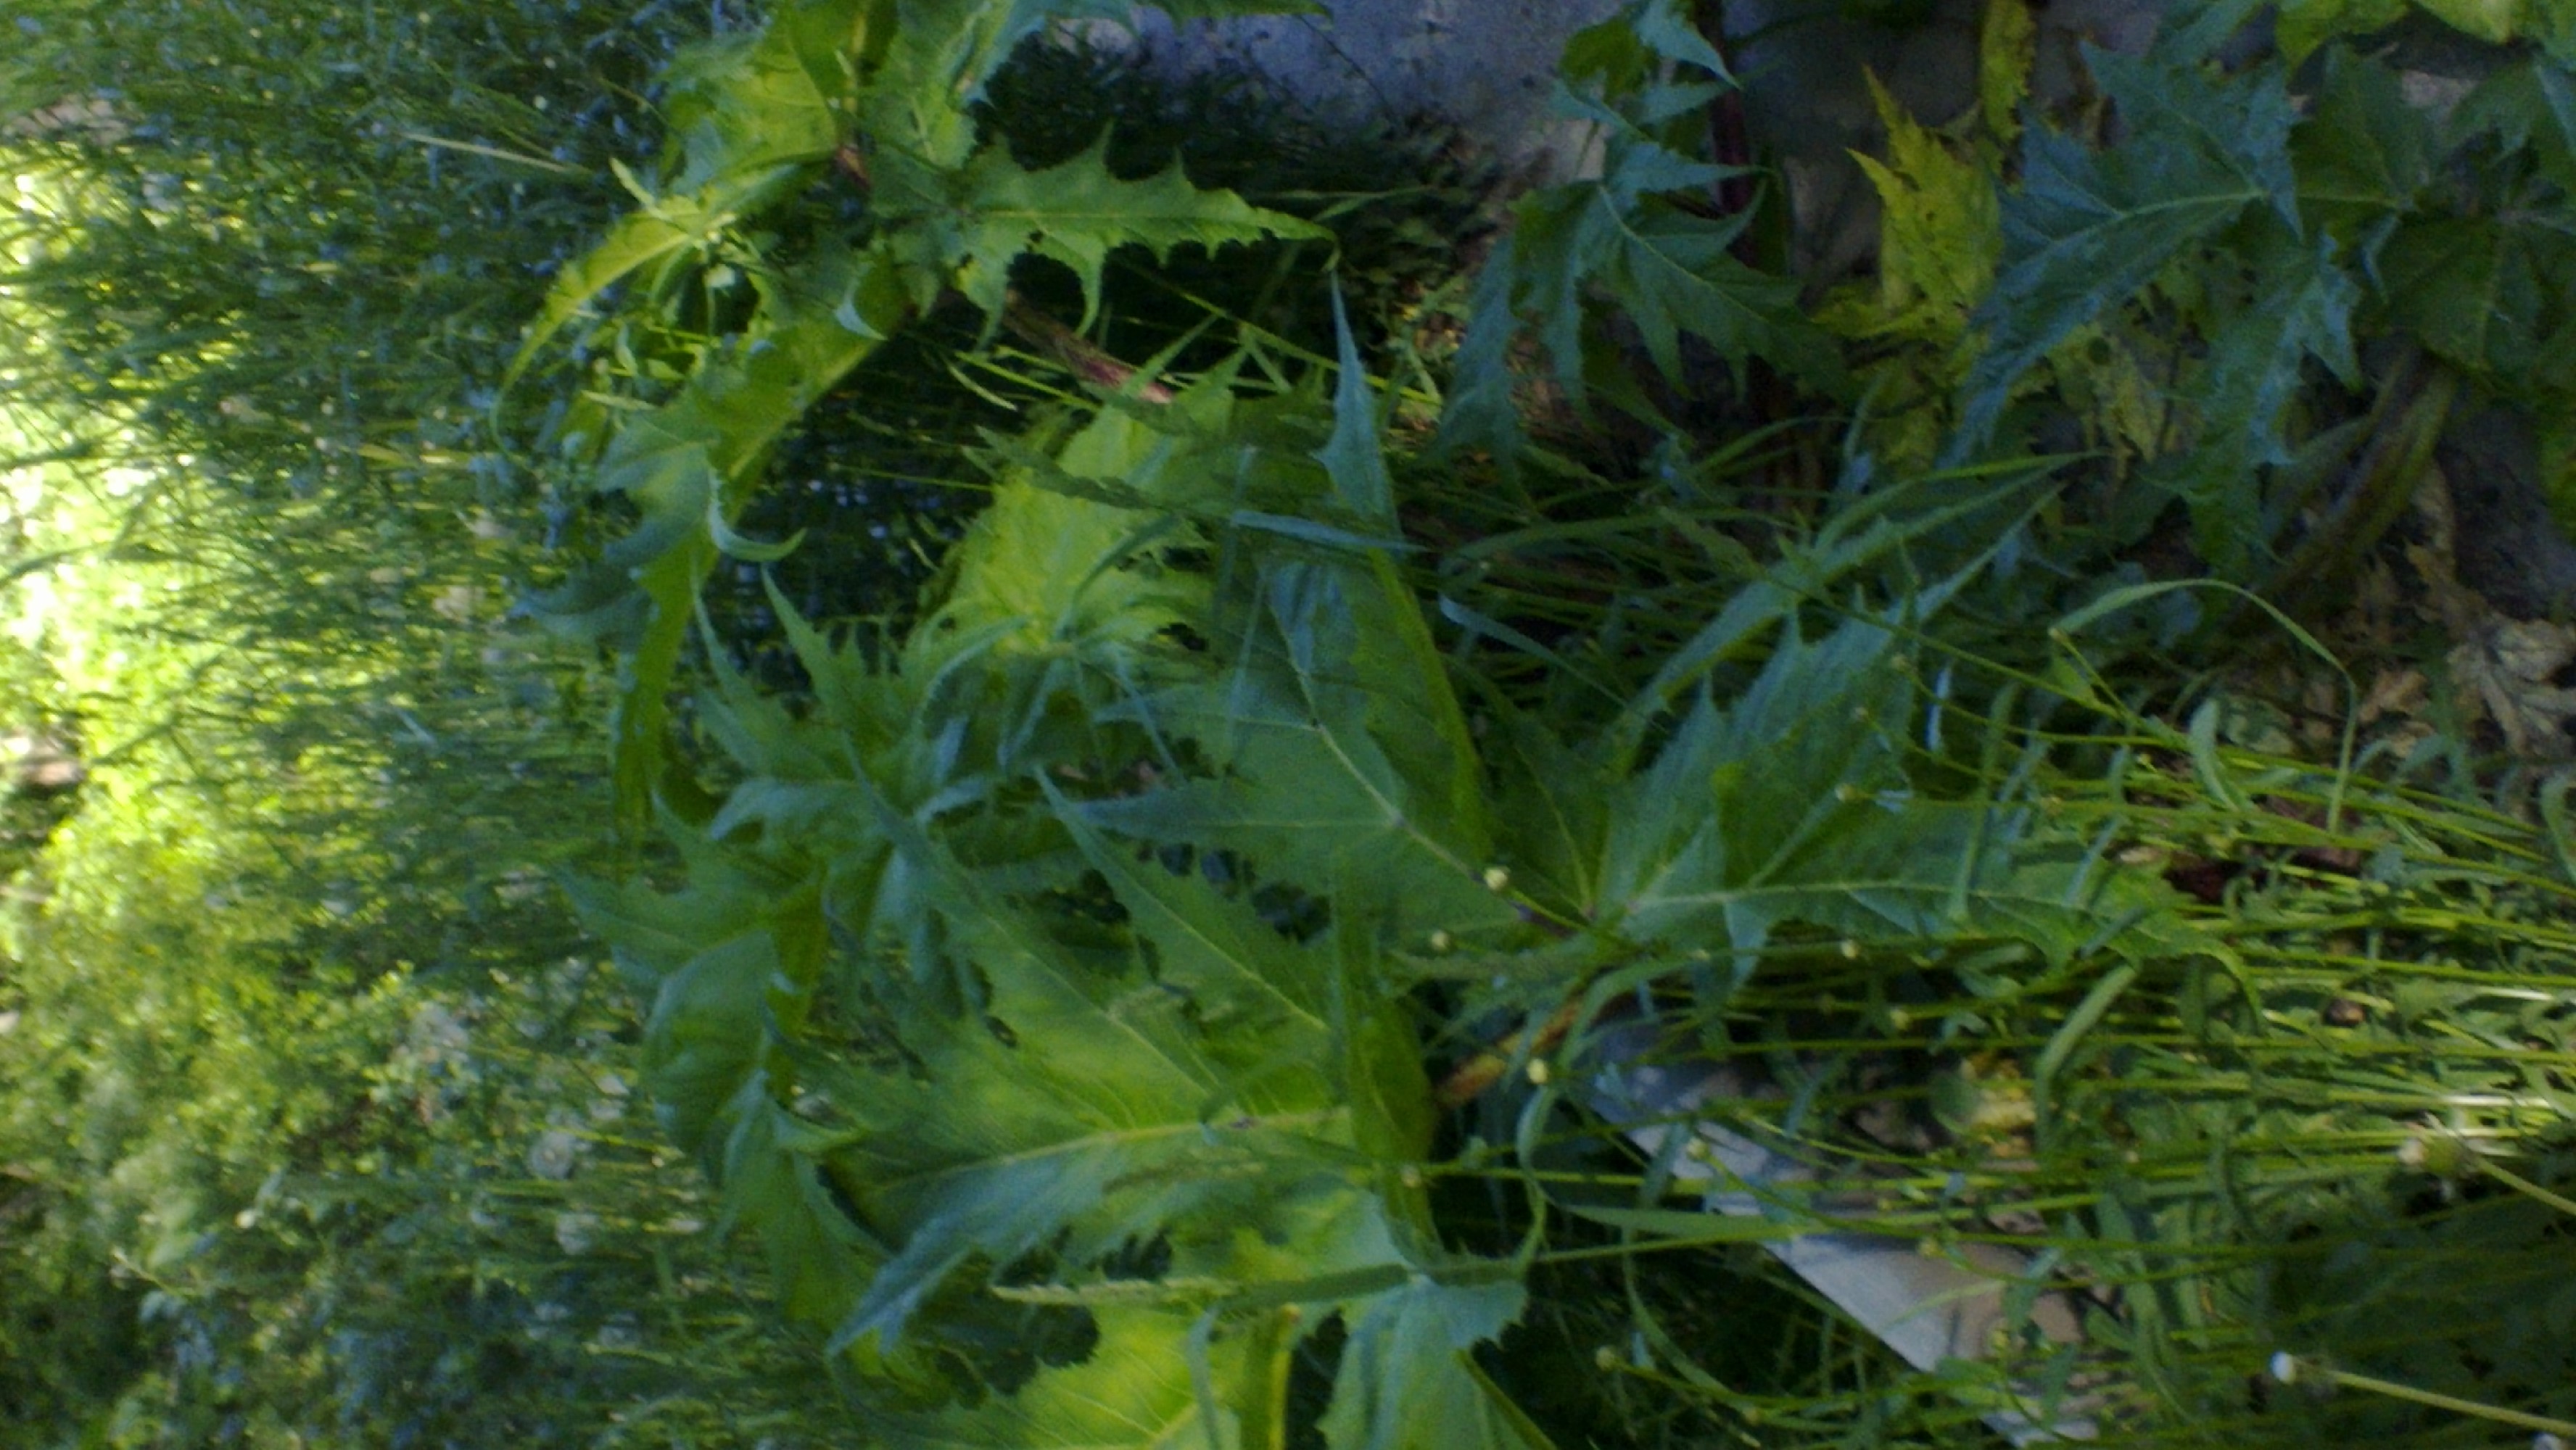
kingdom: Plantae
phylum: Tracheophyta
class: Magnoliopsida
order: Apiales
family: Apiaceae
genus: Heracleum
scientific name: Heracleum
